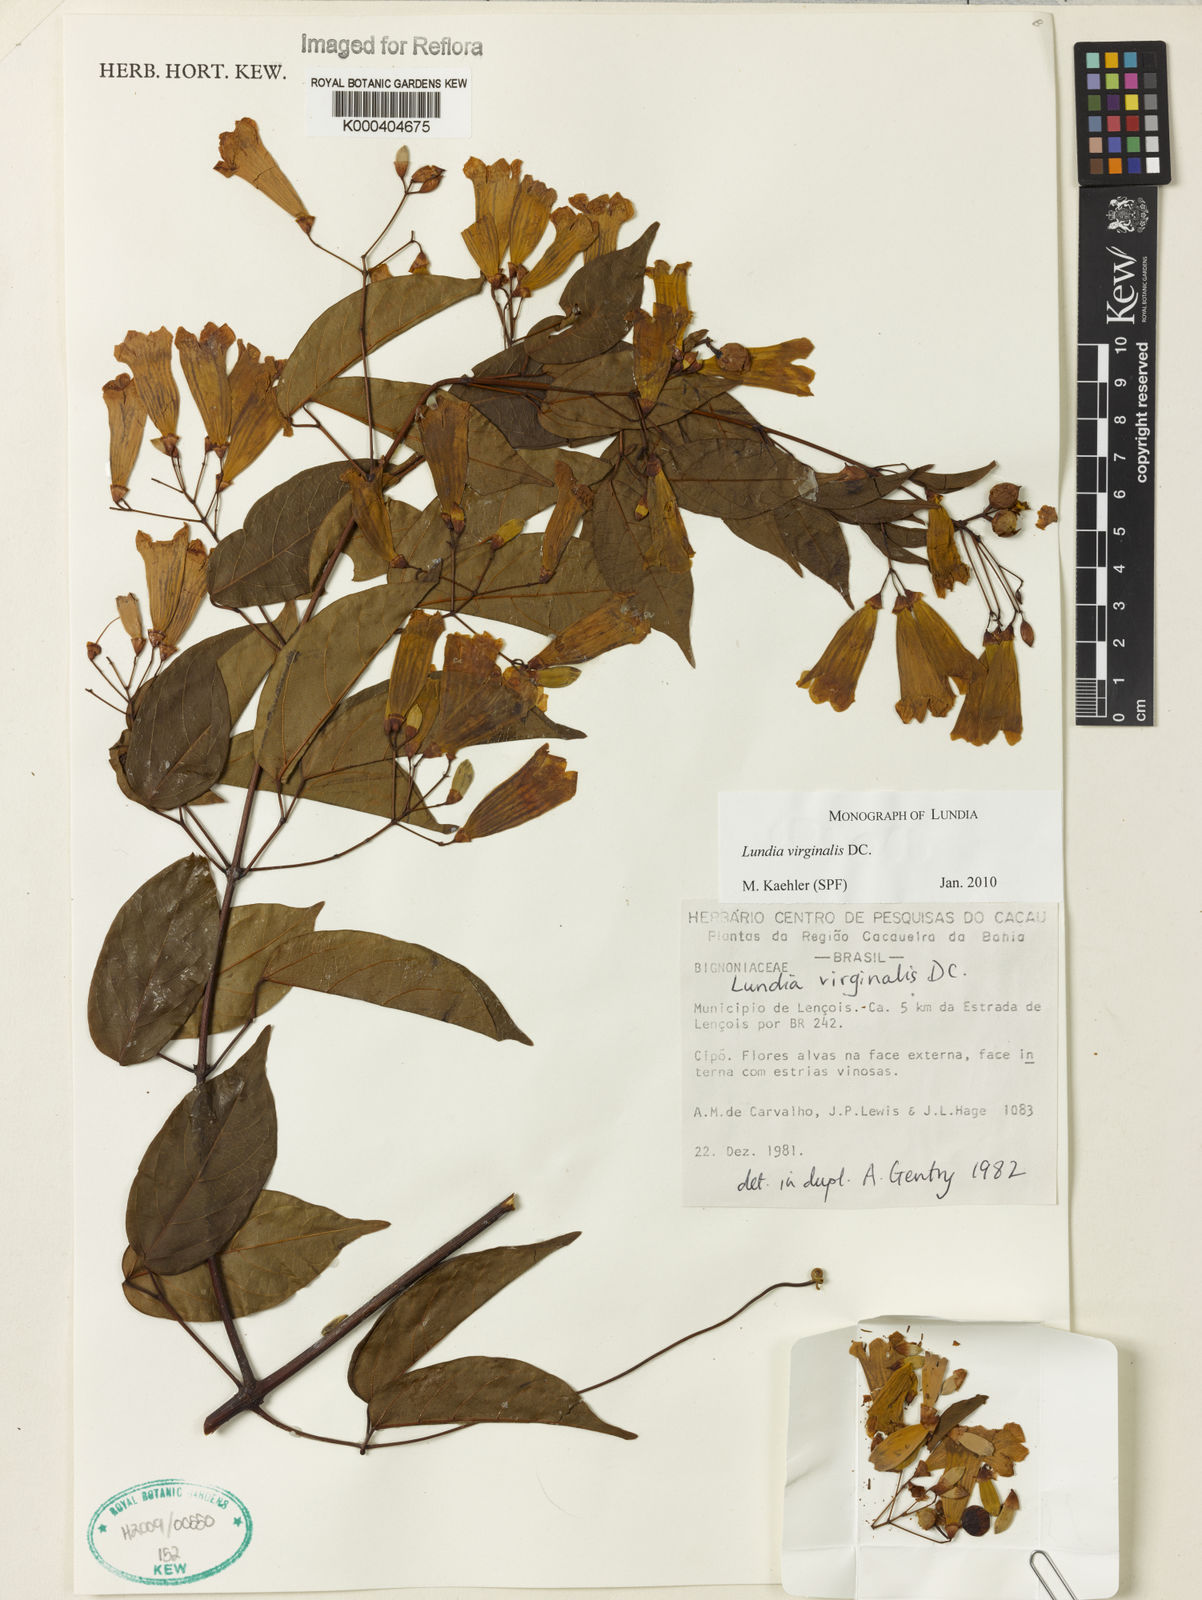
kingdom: Plantae
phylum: Tracheophyta
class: Magnoliopsida
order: Lamiales
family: Bignoniaceae
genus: Lundia
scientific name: Lundia virginalis
